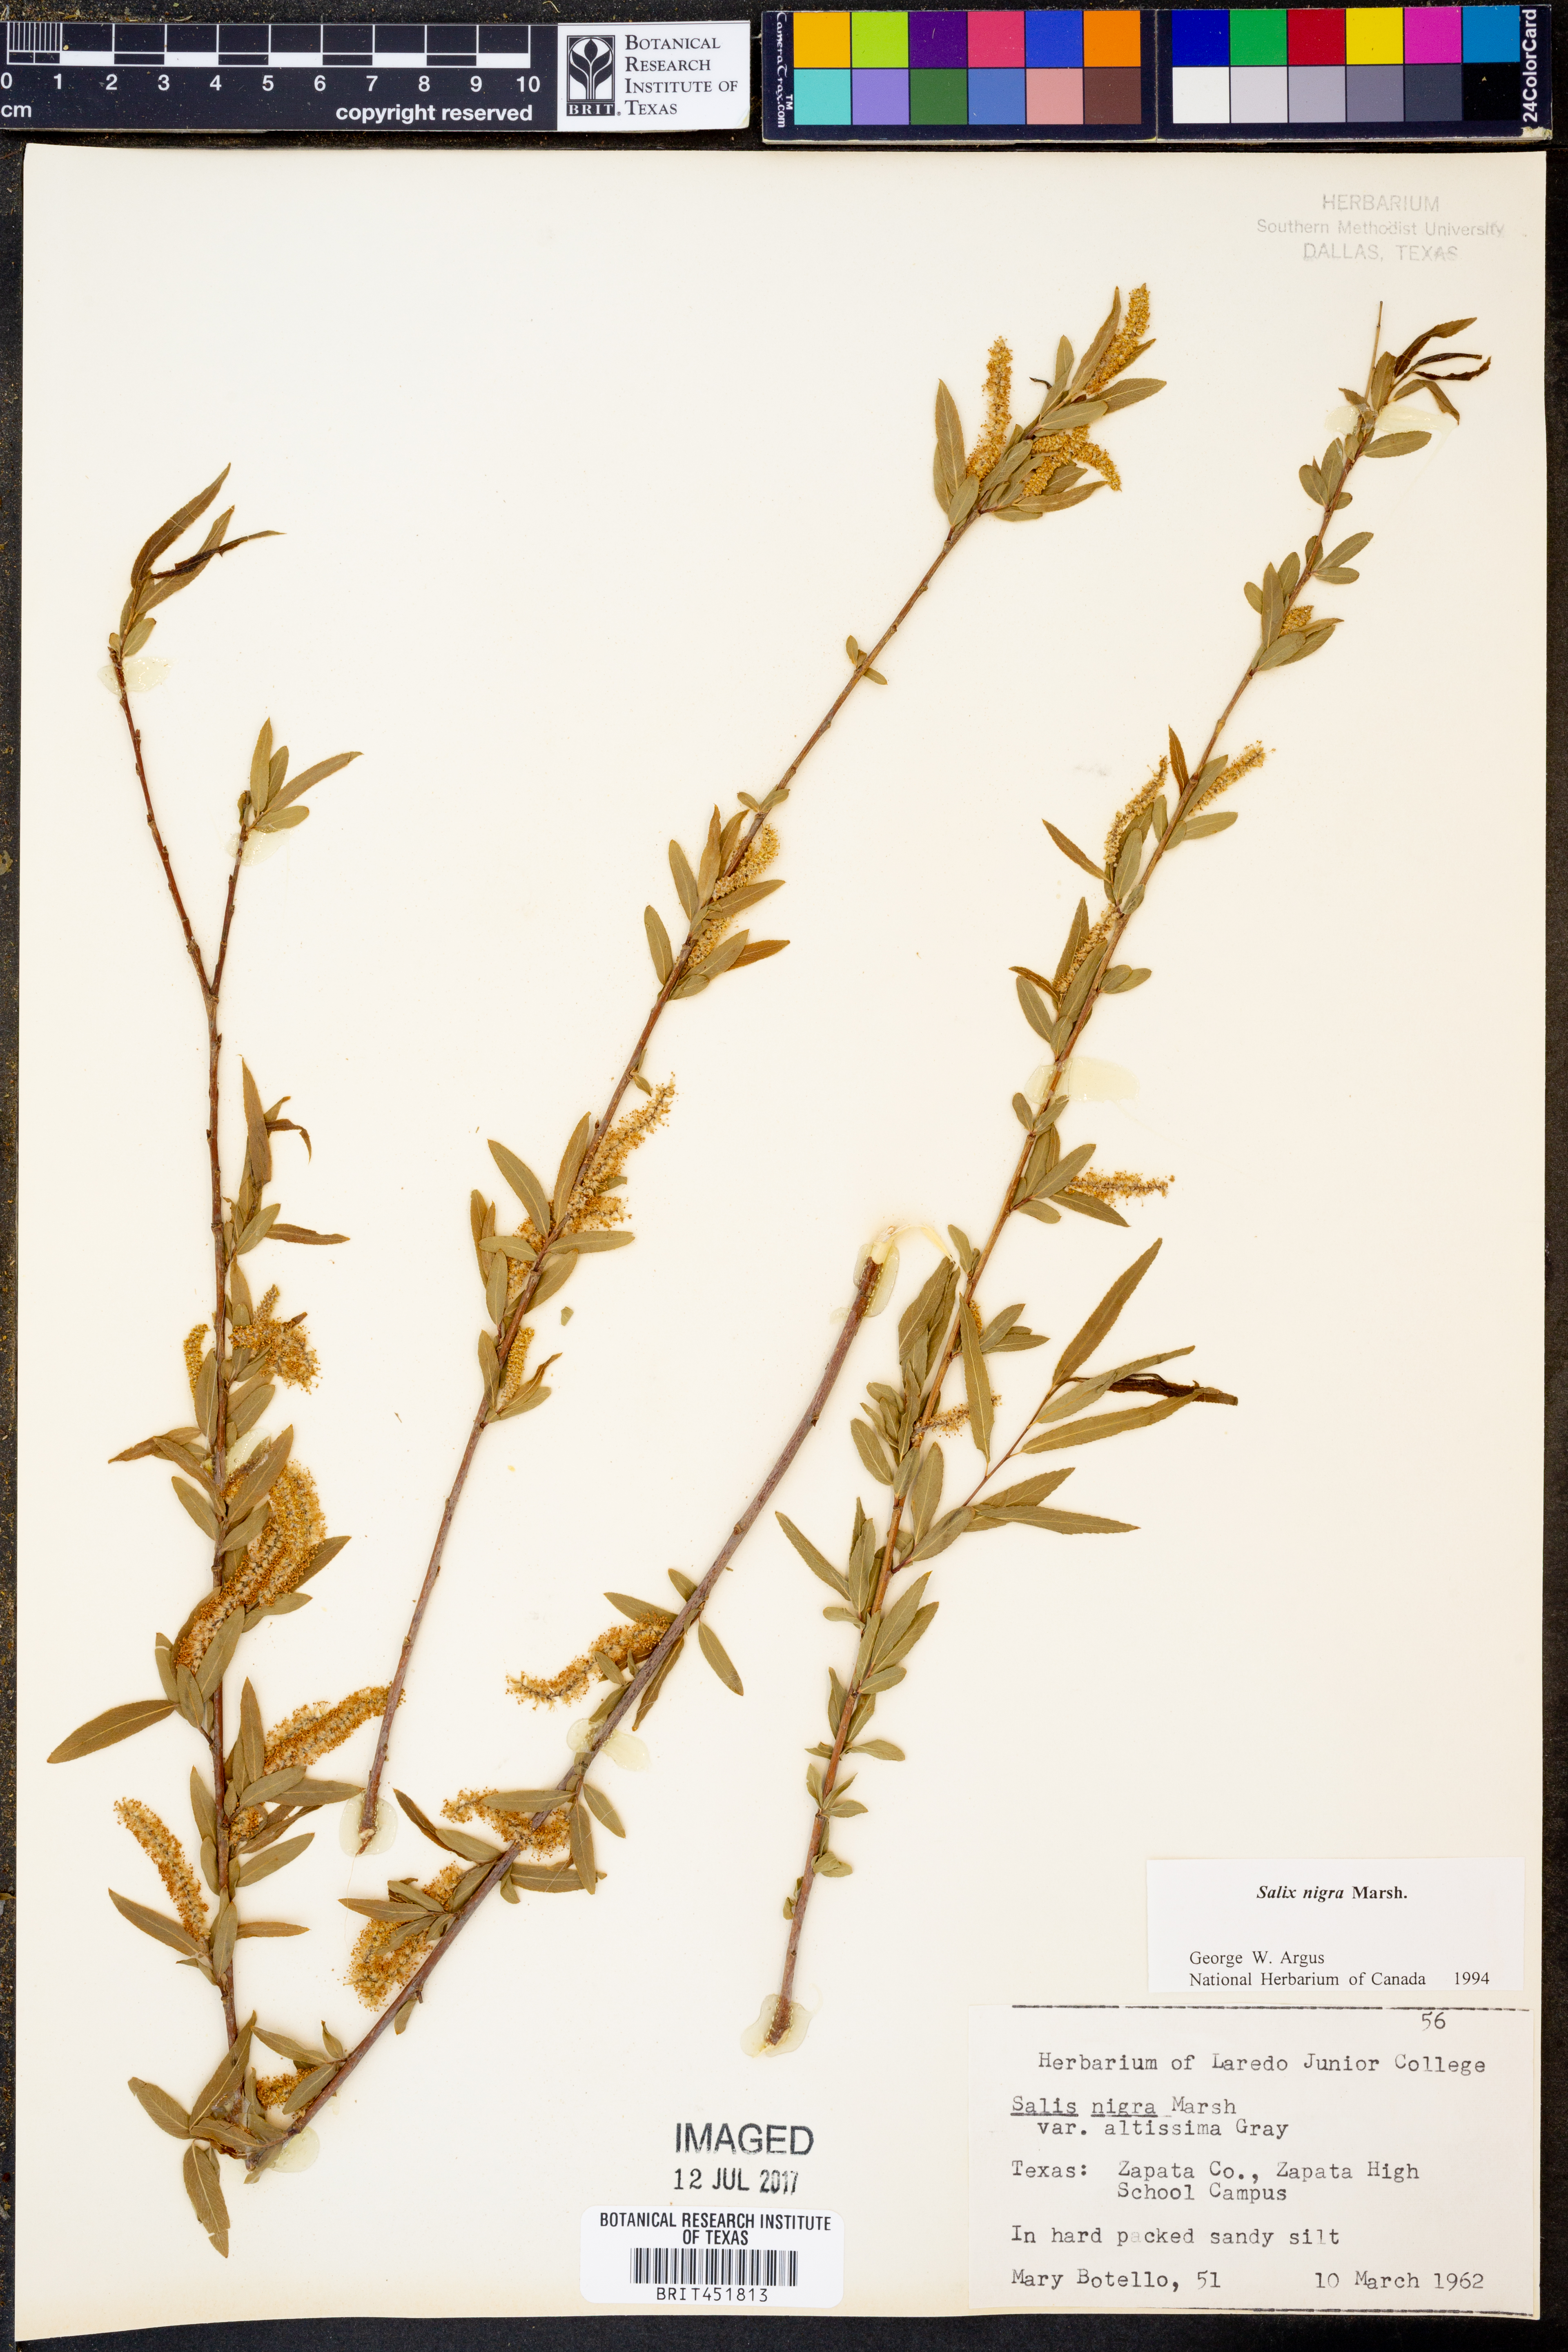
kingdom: Plantae
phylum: Tracheophyta
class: Magnoliopsida
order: Malpighiales
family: Salicaceae
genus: Salix
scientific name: Salix nigra
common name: Black willow
